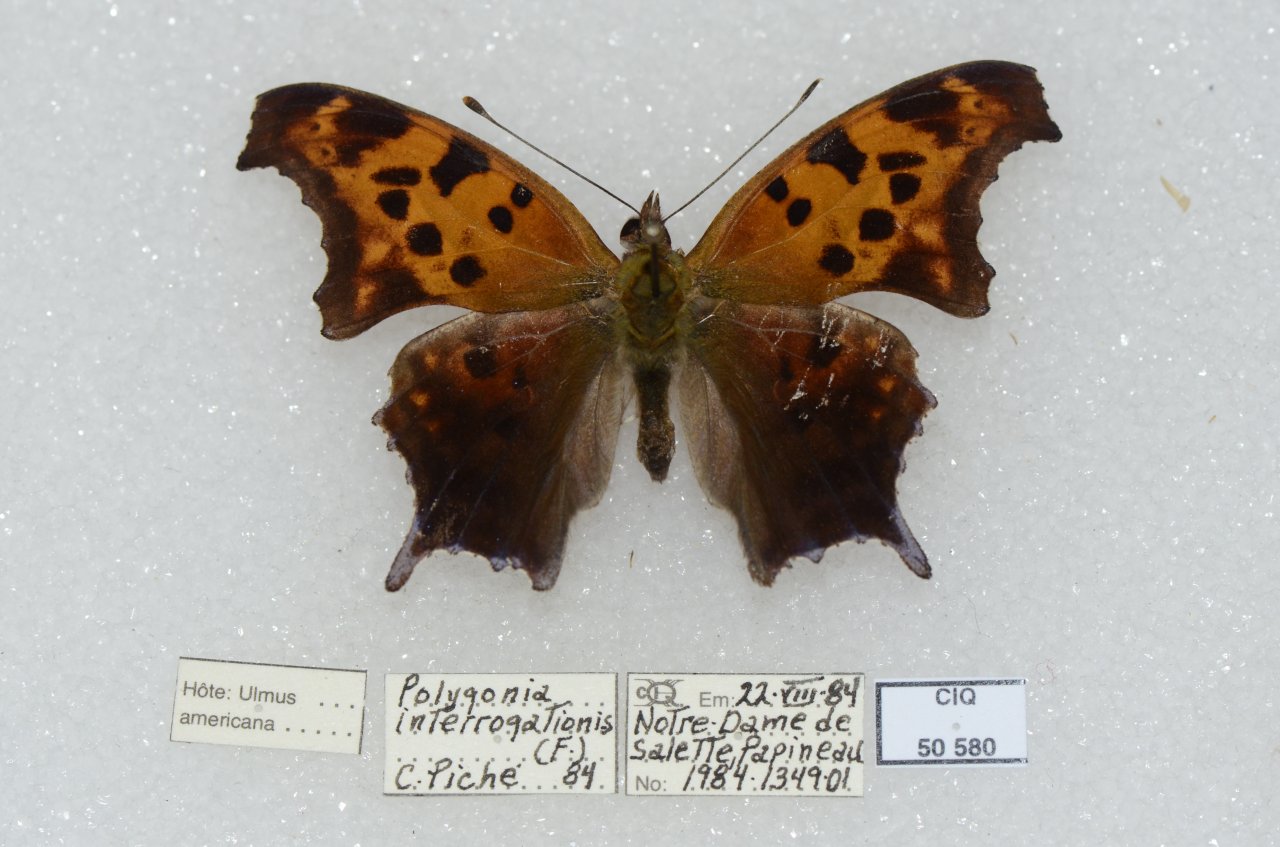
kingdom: Animalia
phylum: Arthropoda
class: Insecta
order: Lepidoptera
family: Nymphalidae
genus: Polygonia
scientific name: Polygonia interrogationis
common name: Question Mark
